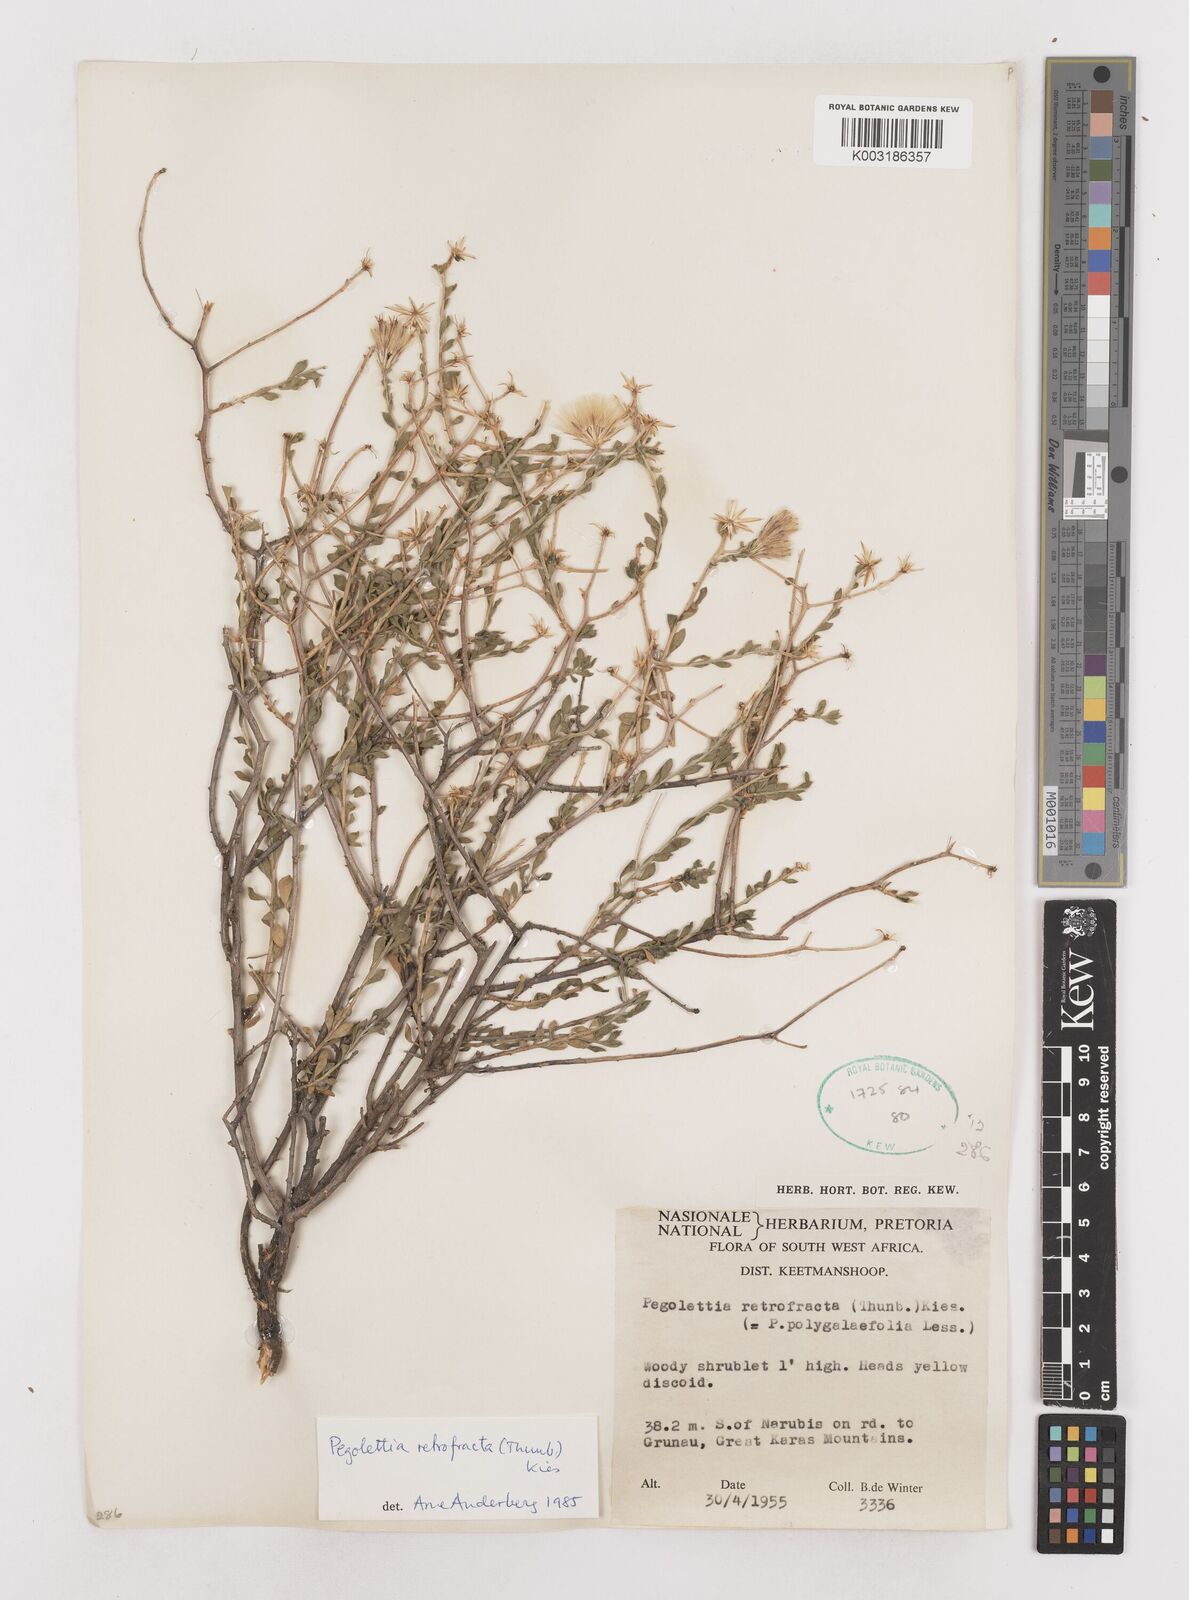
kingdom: Plantae
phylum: Tracheophyta
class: Magnoliopsida
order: Asterales
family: Asteraceae
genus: Pegolettia
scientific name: Pegolettia retrofracta
